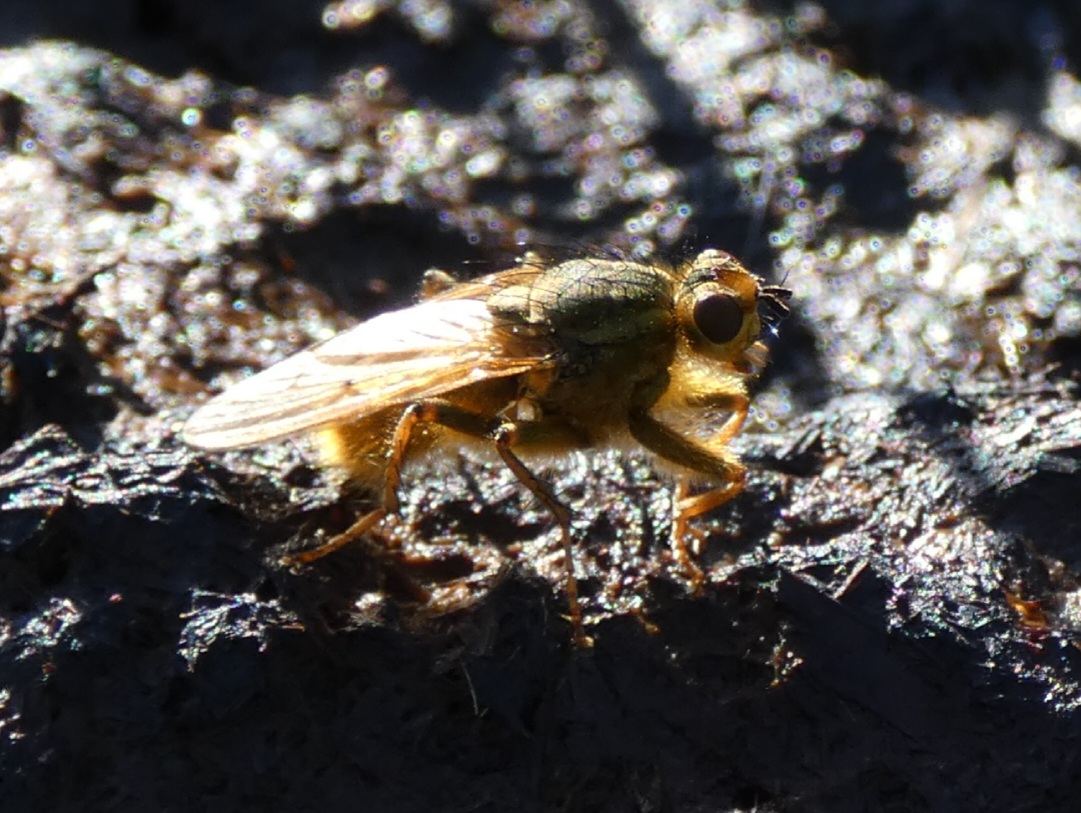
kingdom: Animalia
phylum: Arthropoda
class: Insecta
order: Diptera
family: Scathophagidae
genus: Scathophaga
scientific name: Scathophaga stercoraria
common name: Almindelig gødningsflue
